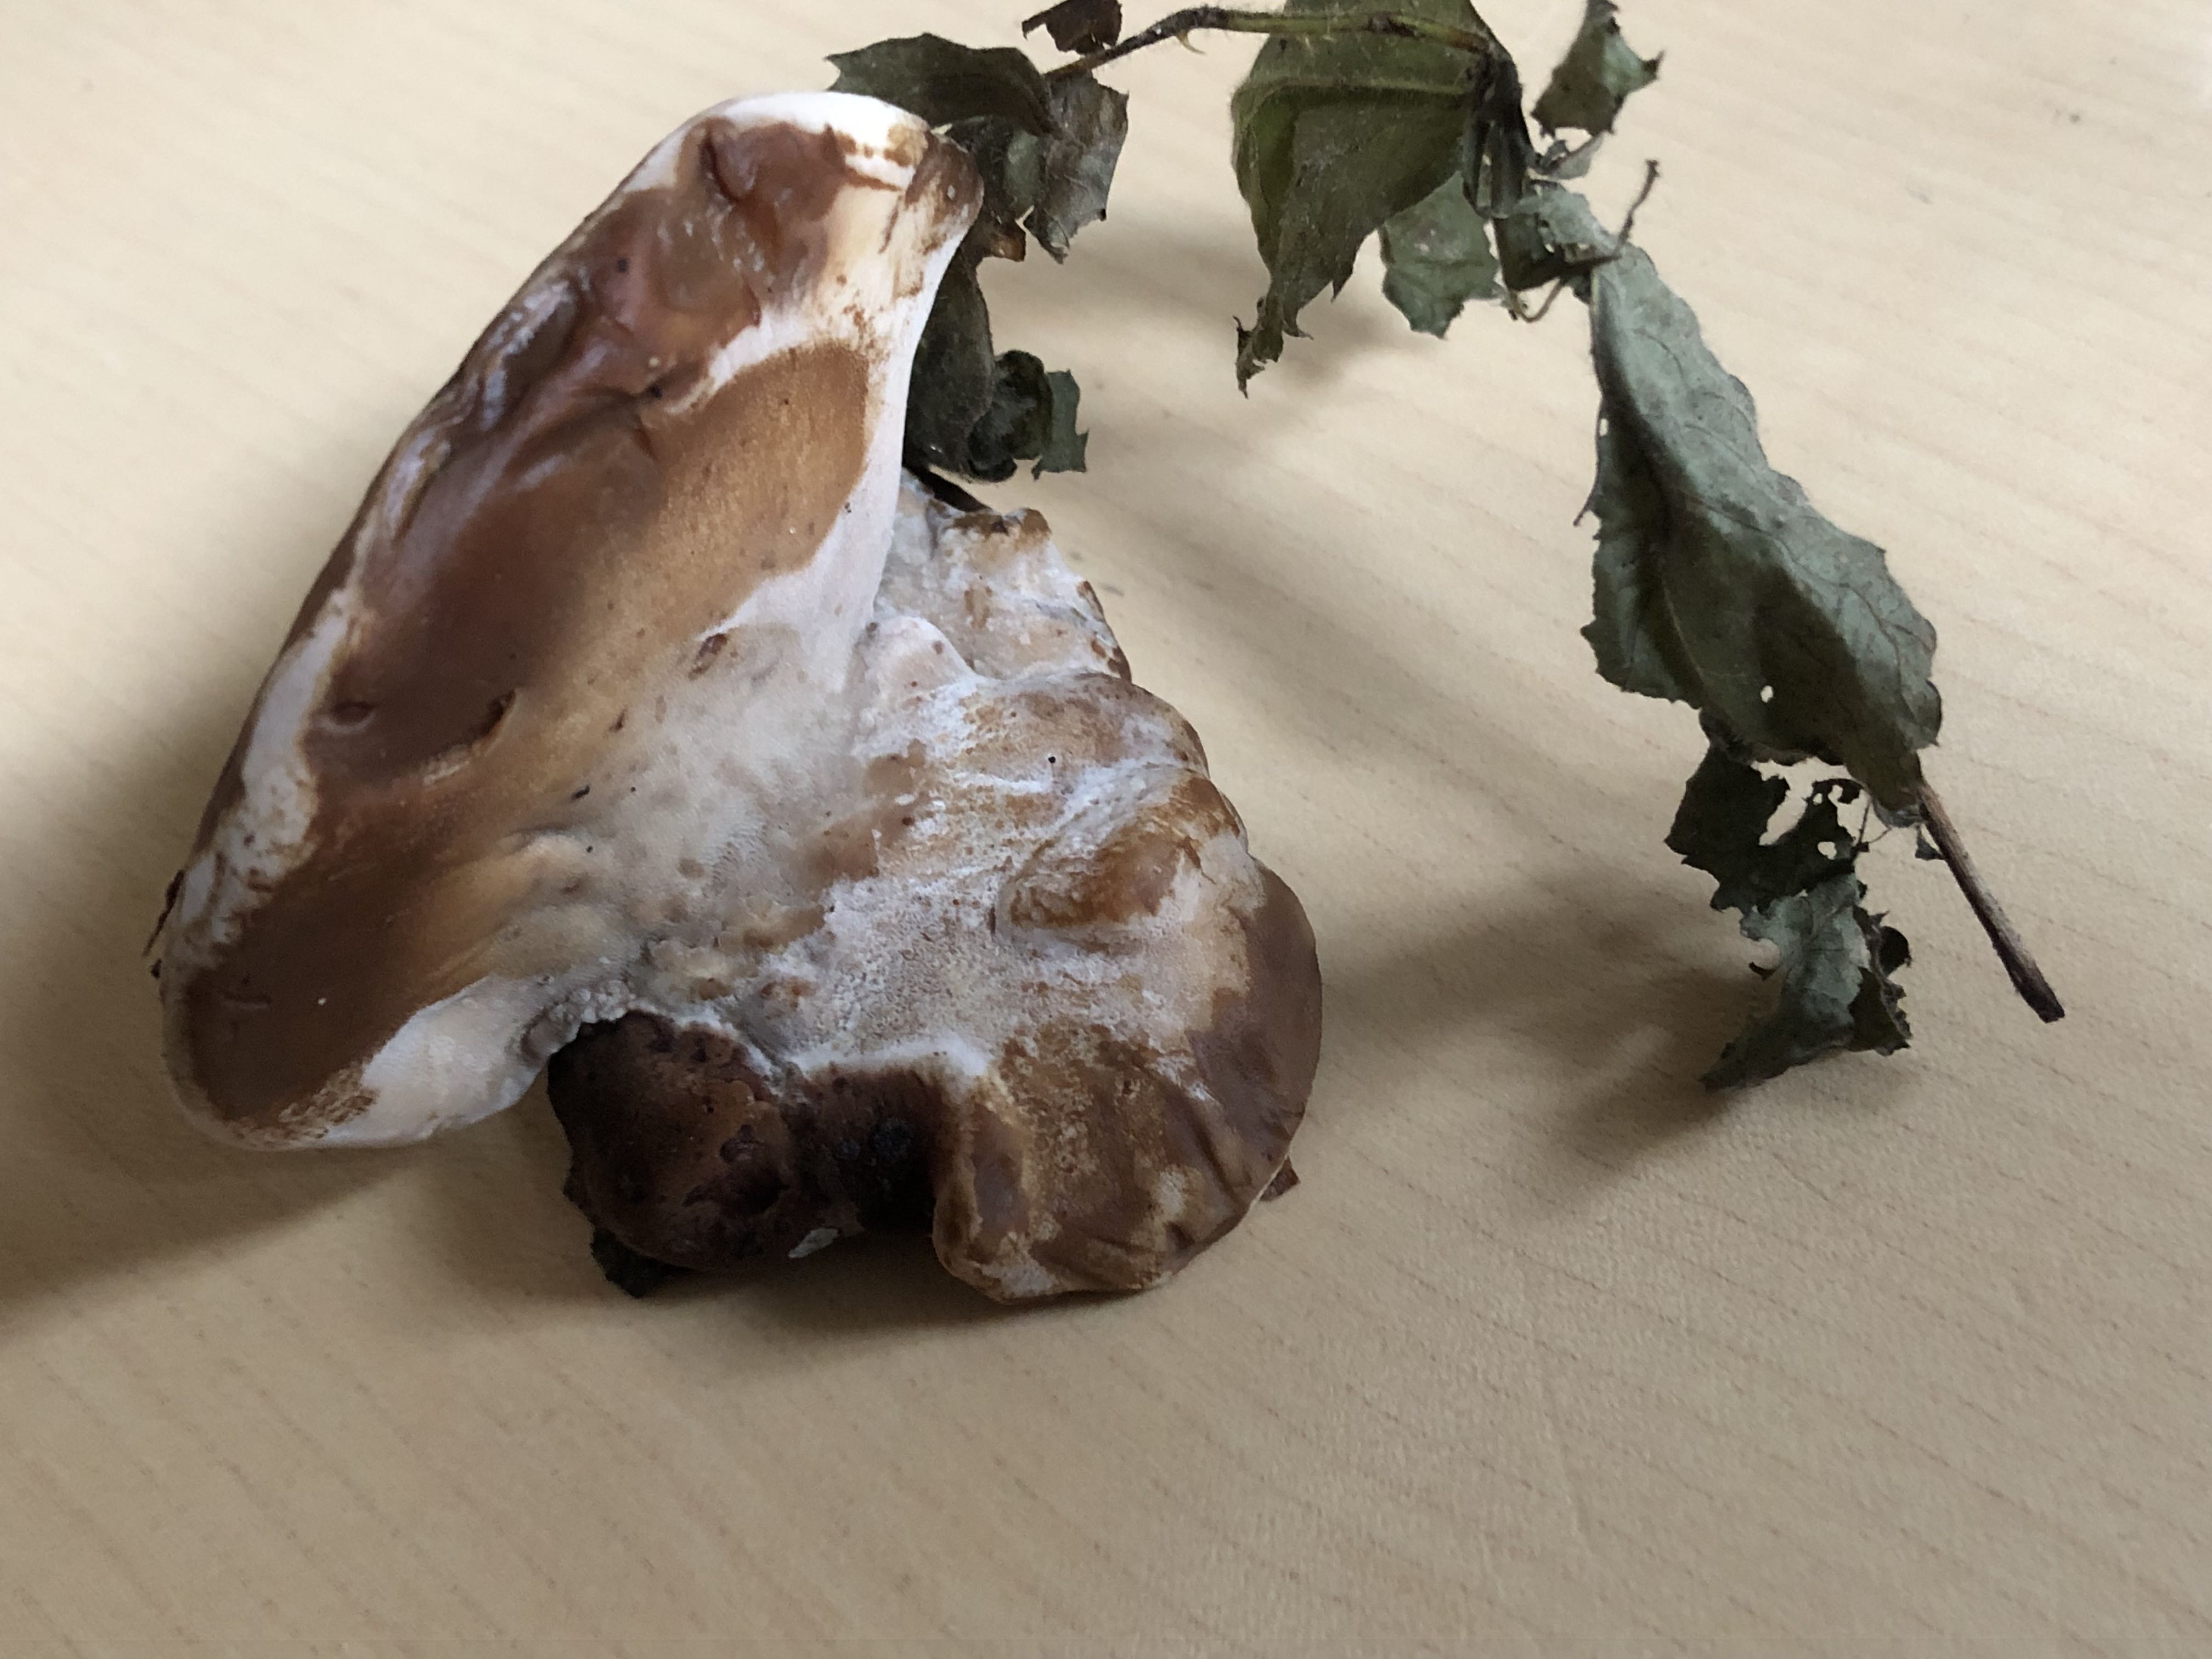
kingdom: Fungi
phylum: Basidiomycota
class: Agaricomycetes
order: Polyporales
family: Ischnodermataceae
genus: Ischnoderma
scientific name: Ischnoderma resinosum
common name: løv-tjæreporesvamp
